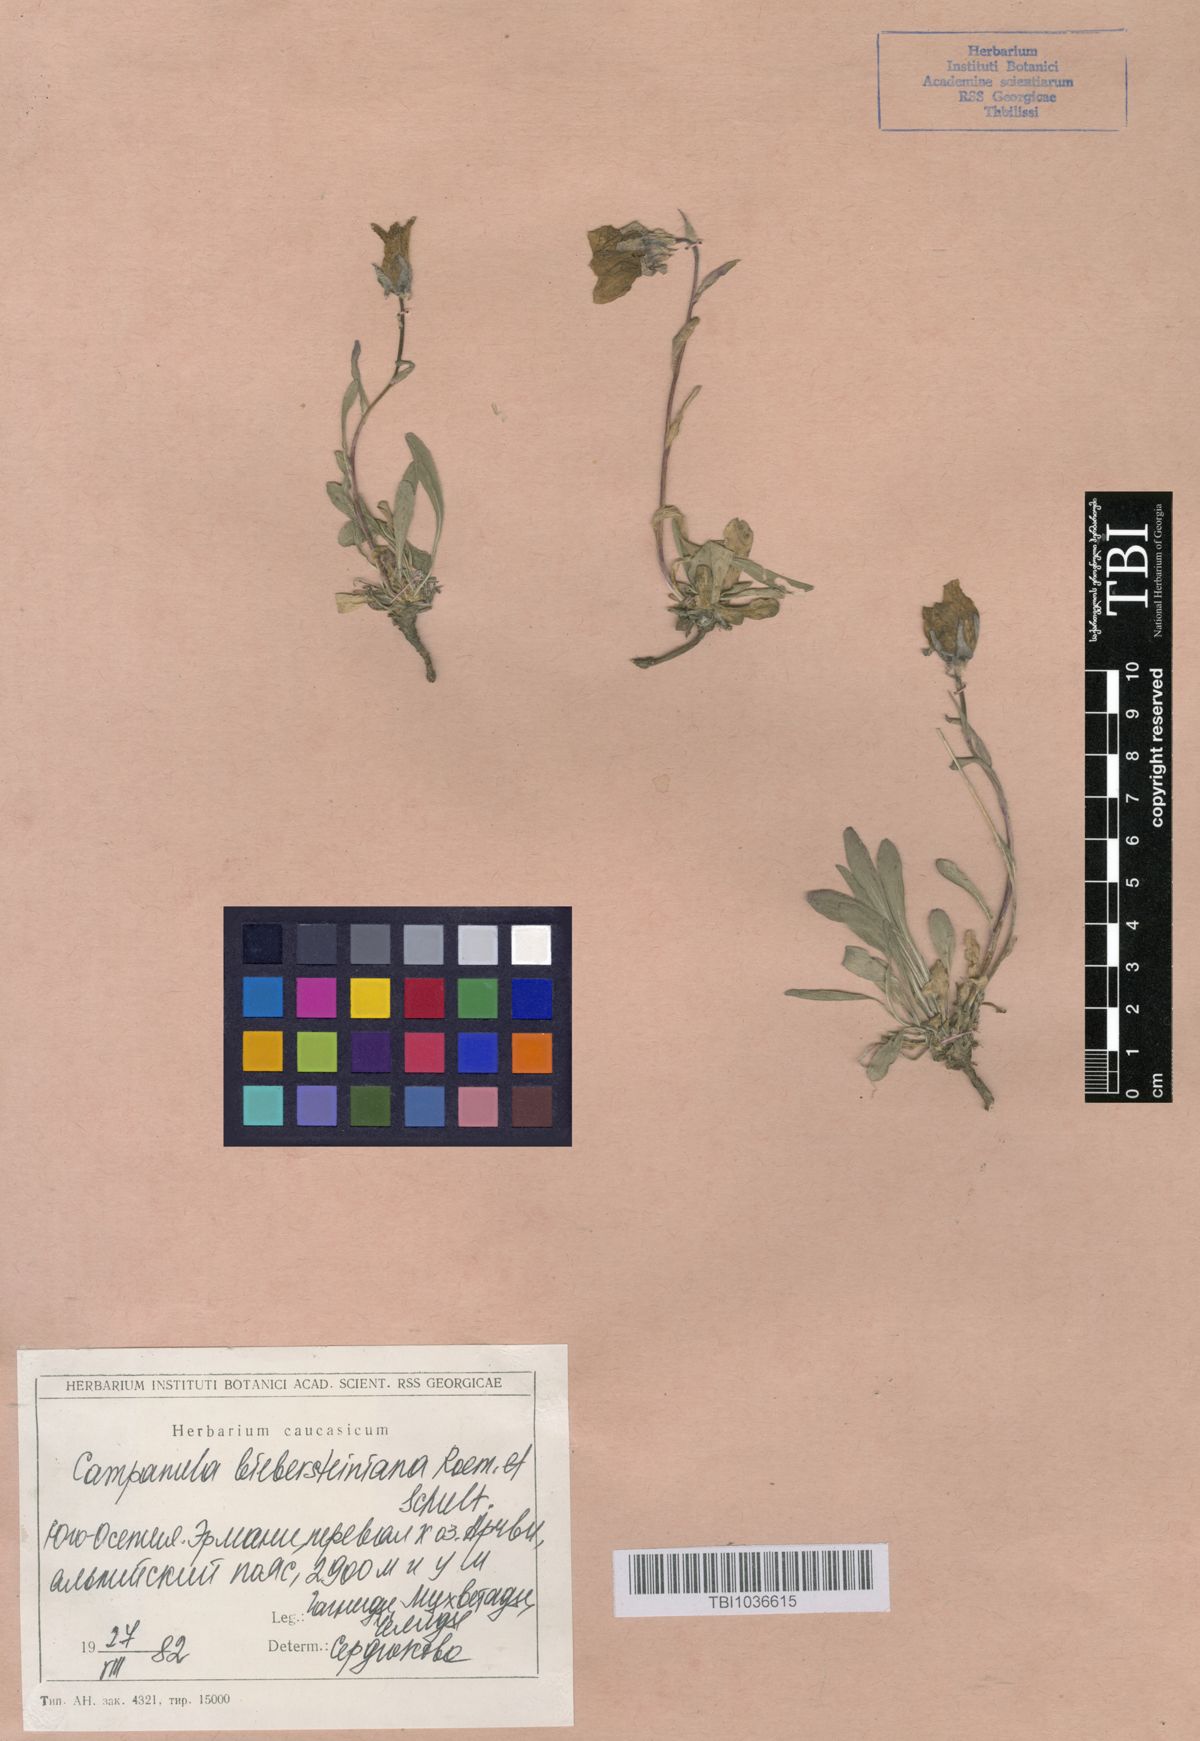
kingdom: Plantae
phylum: Tracheophyta
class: Magnoliopsida
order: Asterales
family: Campanulaceae
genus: Campanula
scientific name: Campanula tridentata
